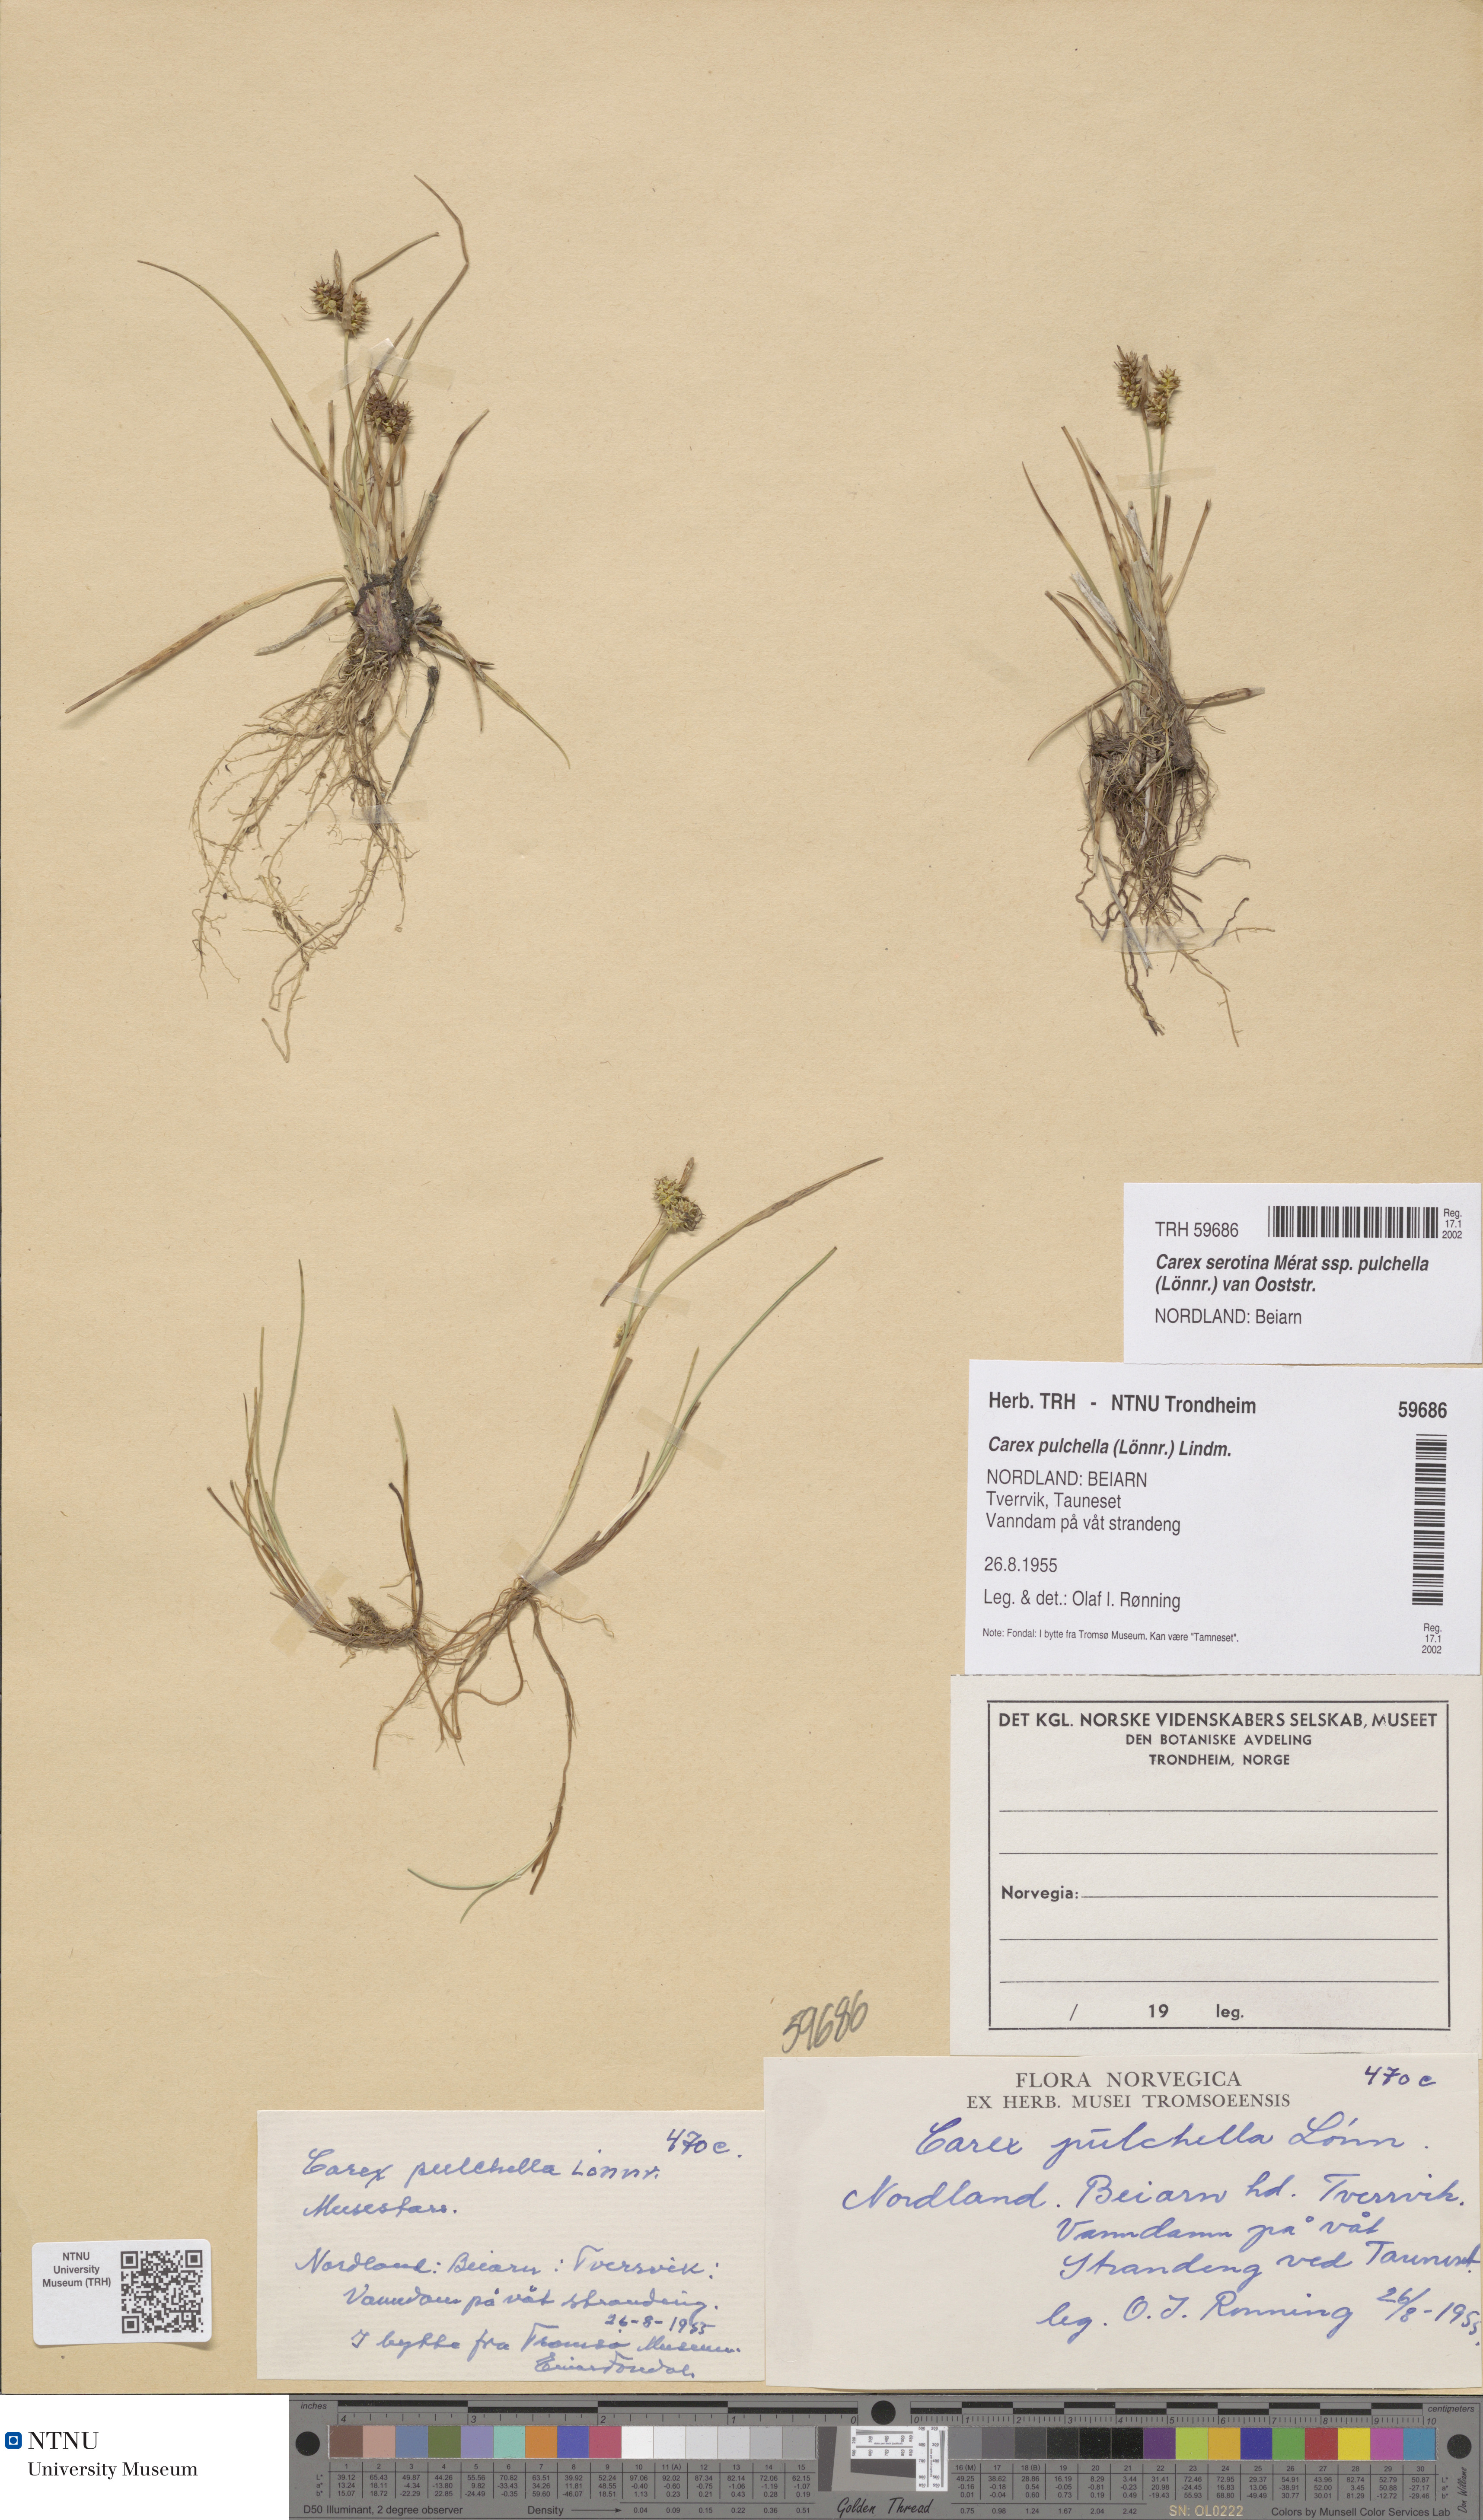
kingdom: Plantae
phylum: Tracheophyta
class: Liliopsida
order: Poales
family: Cyperaceae
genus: Carex
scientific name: Carex oederi
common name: Common & small-fruited yellow-sedge
